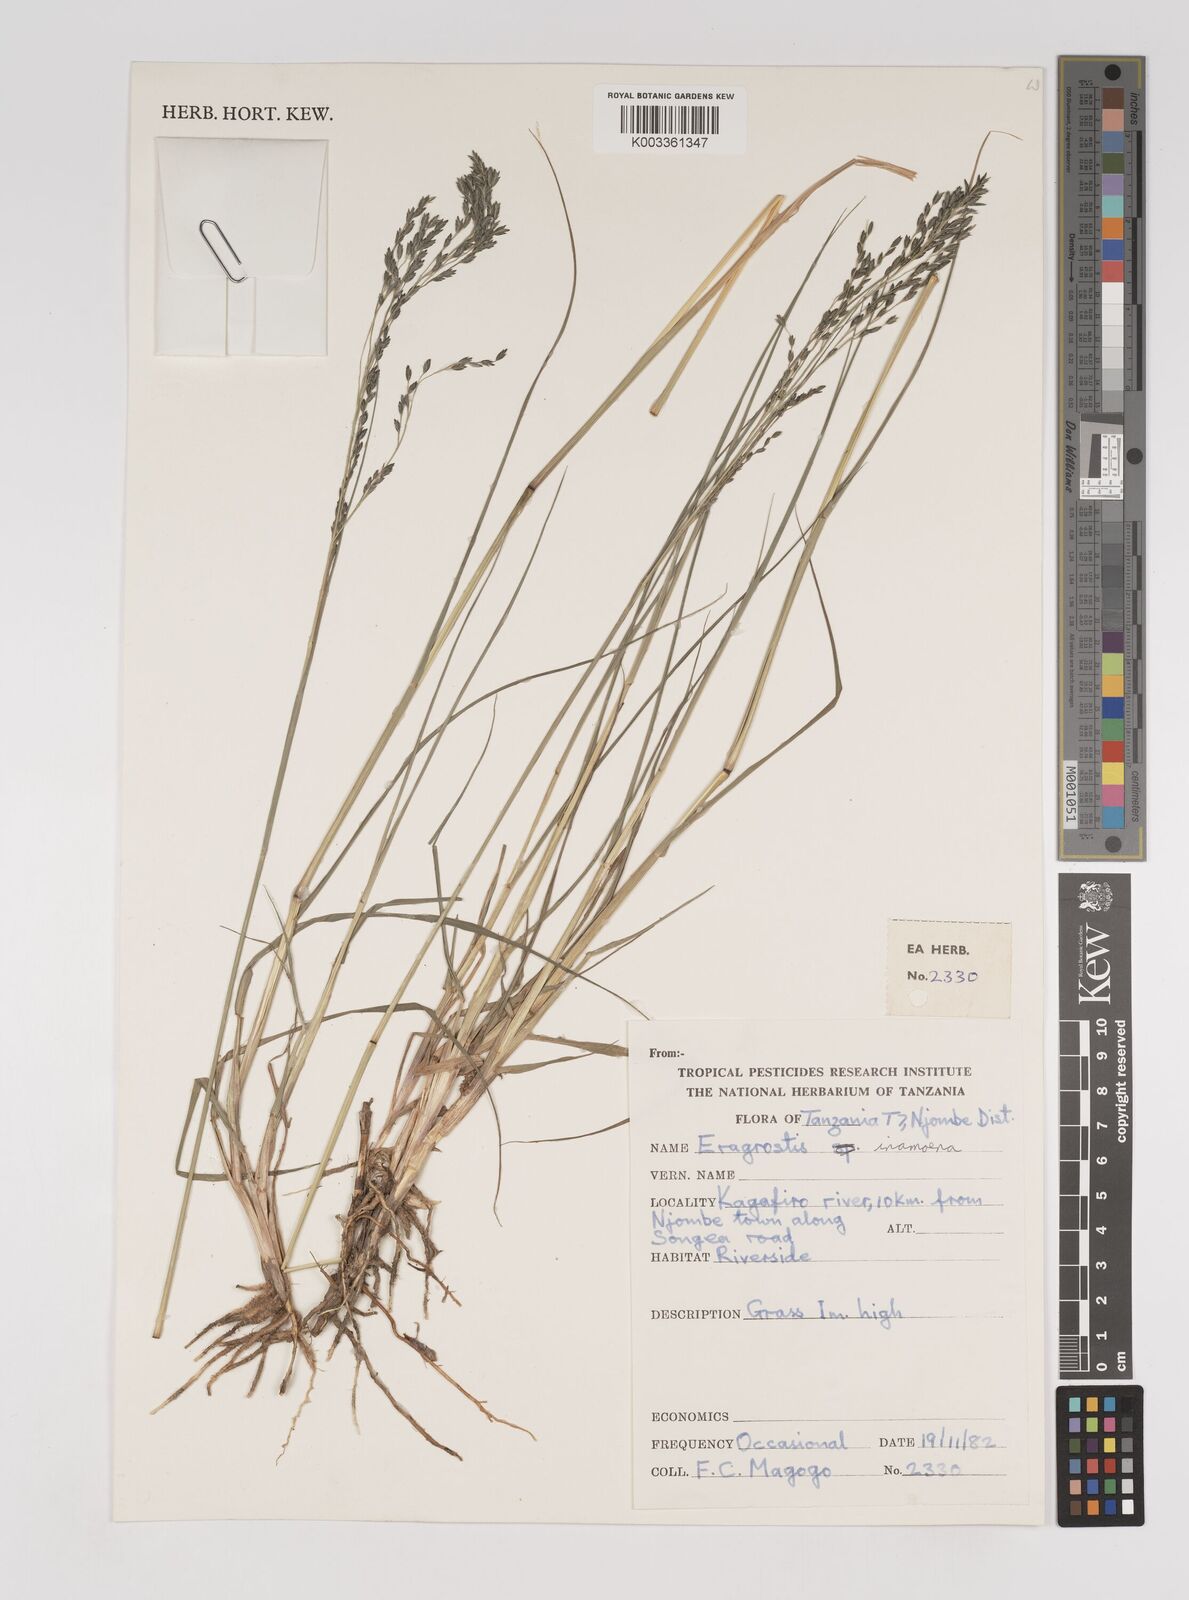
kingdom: Plantae
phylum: Tracheophyta
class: Liliopsida
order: Poales
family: Poaceae
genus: Eragrostis
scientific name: Eragrostis inamoena
